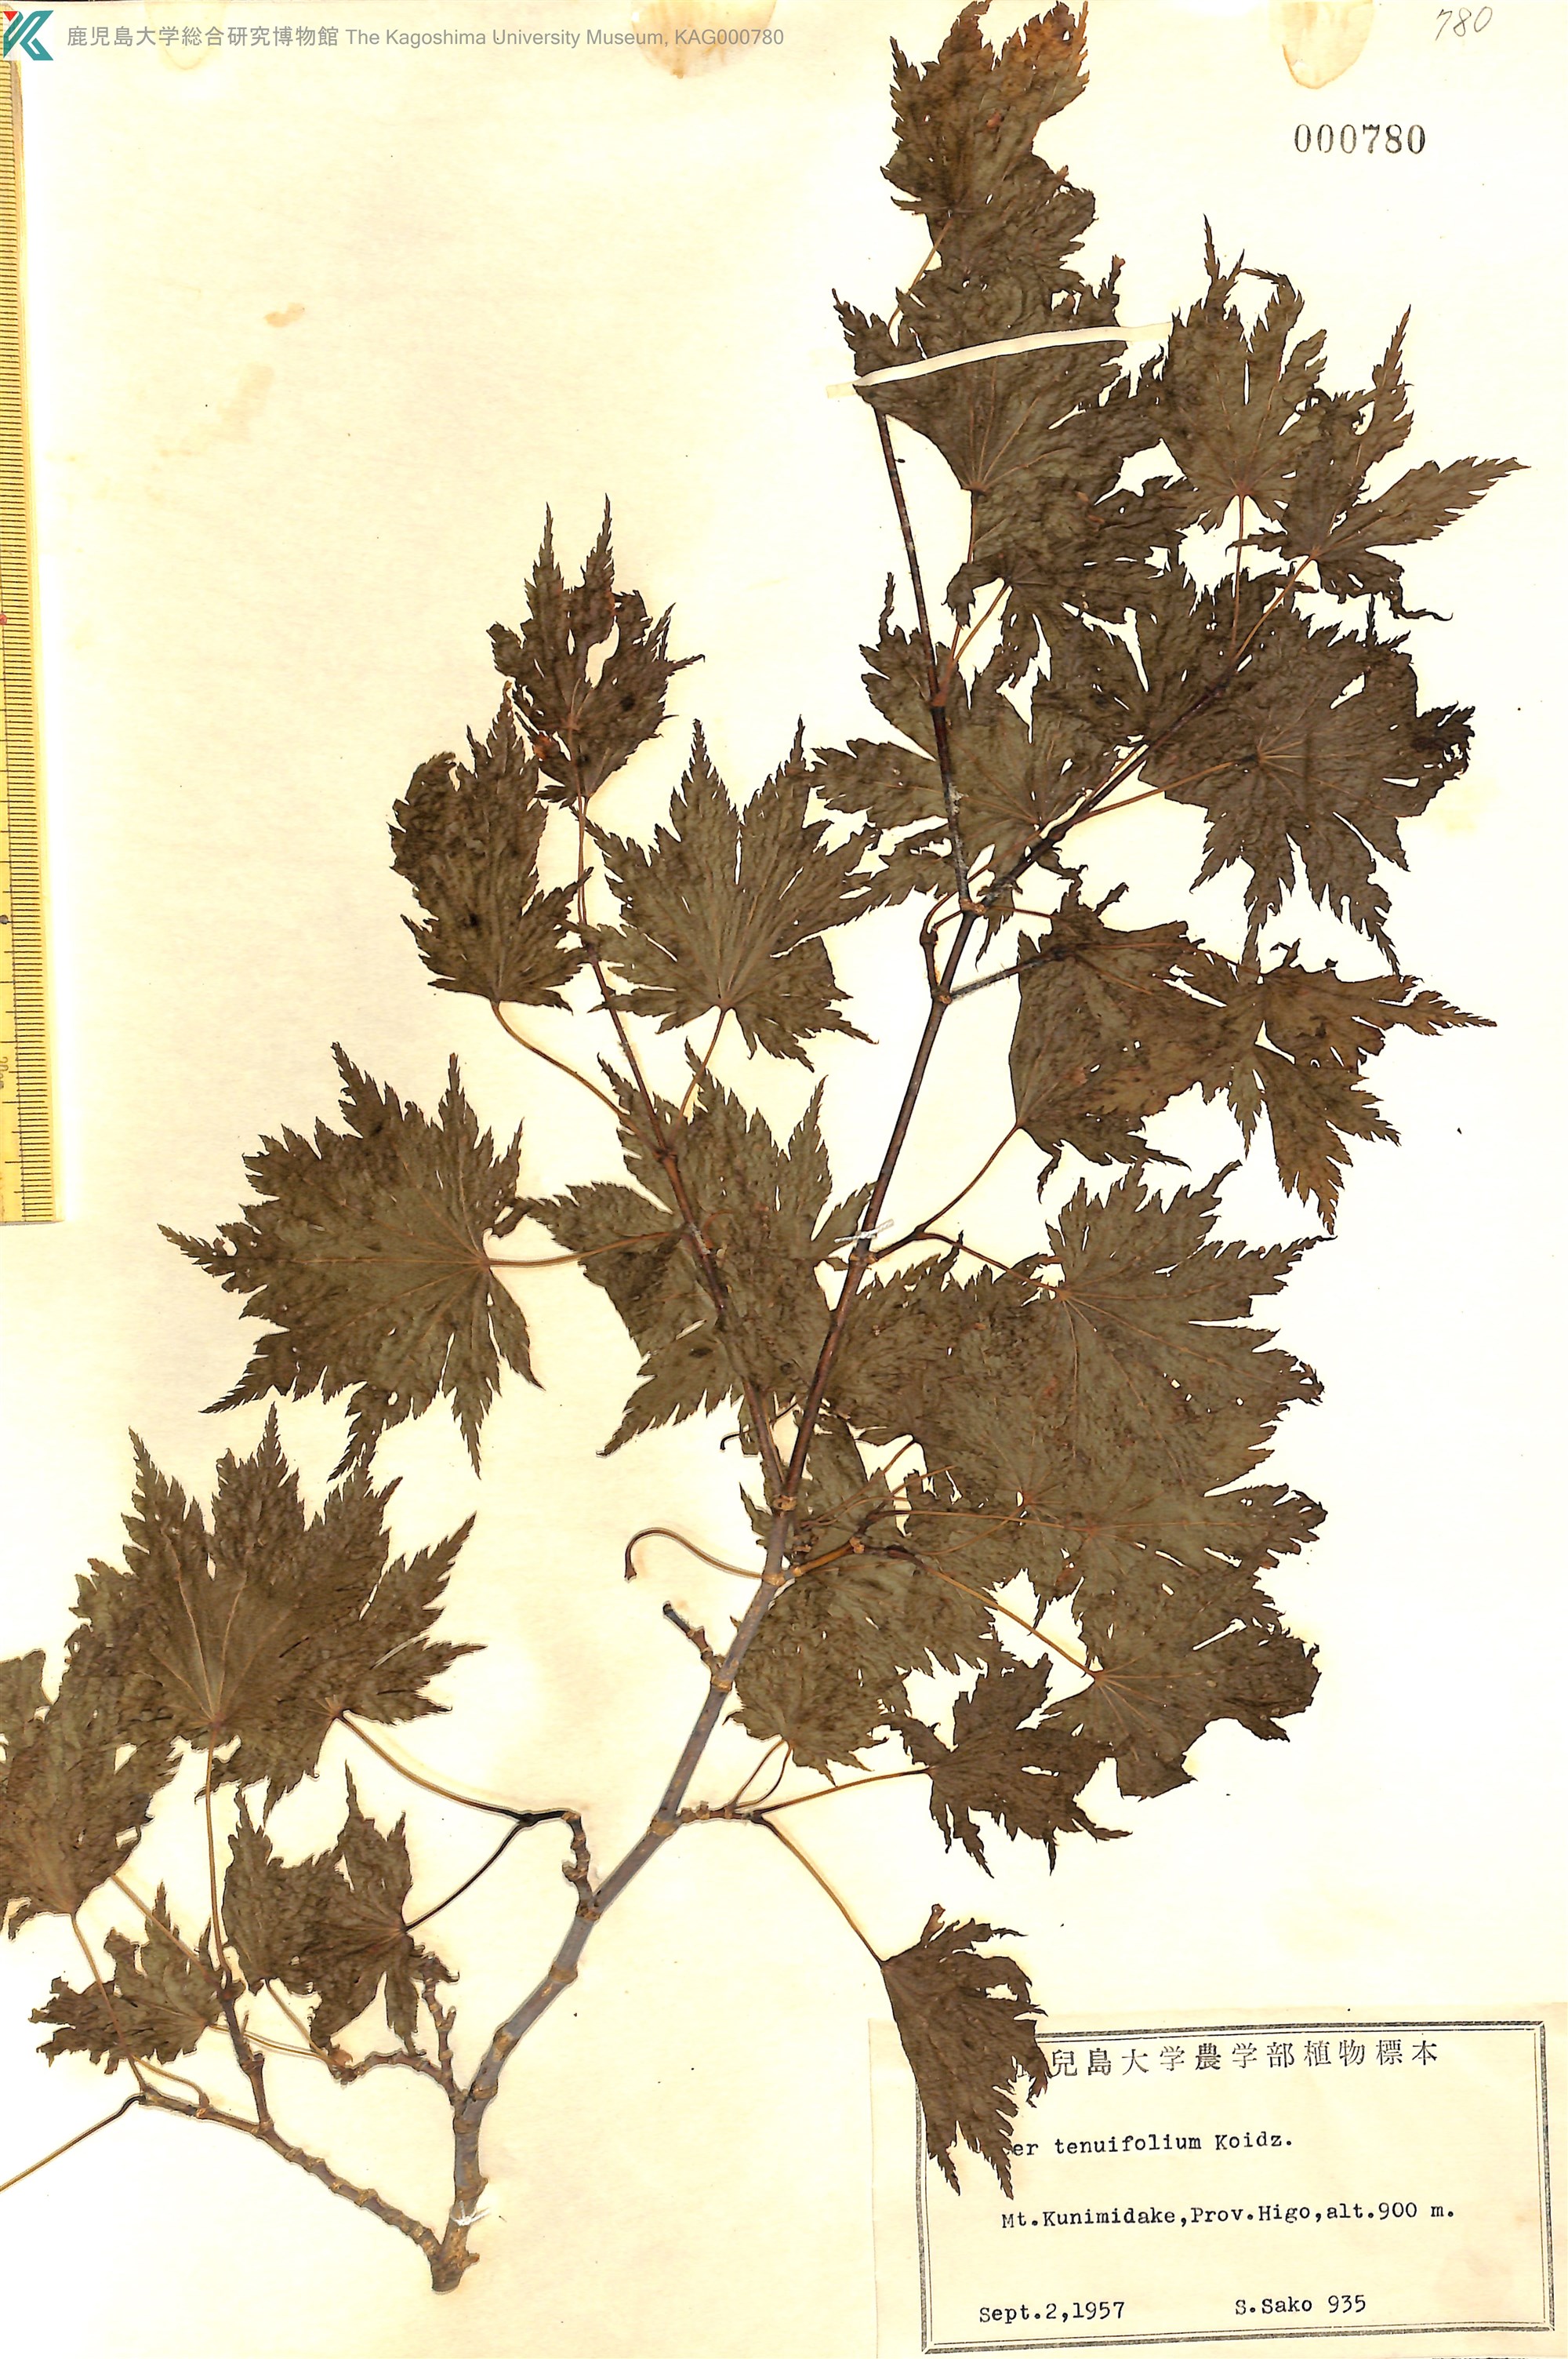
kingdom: Plantae
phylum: Tracheophyta
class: Magnoliopsida
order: Sapindales
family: Sapindaceae
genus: Acer
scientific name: Acer shirasawanum
